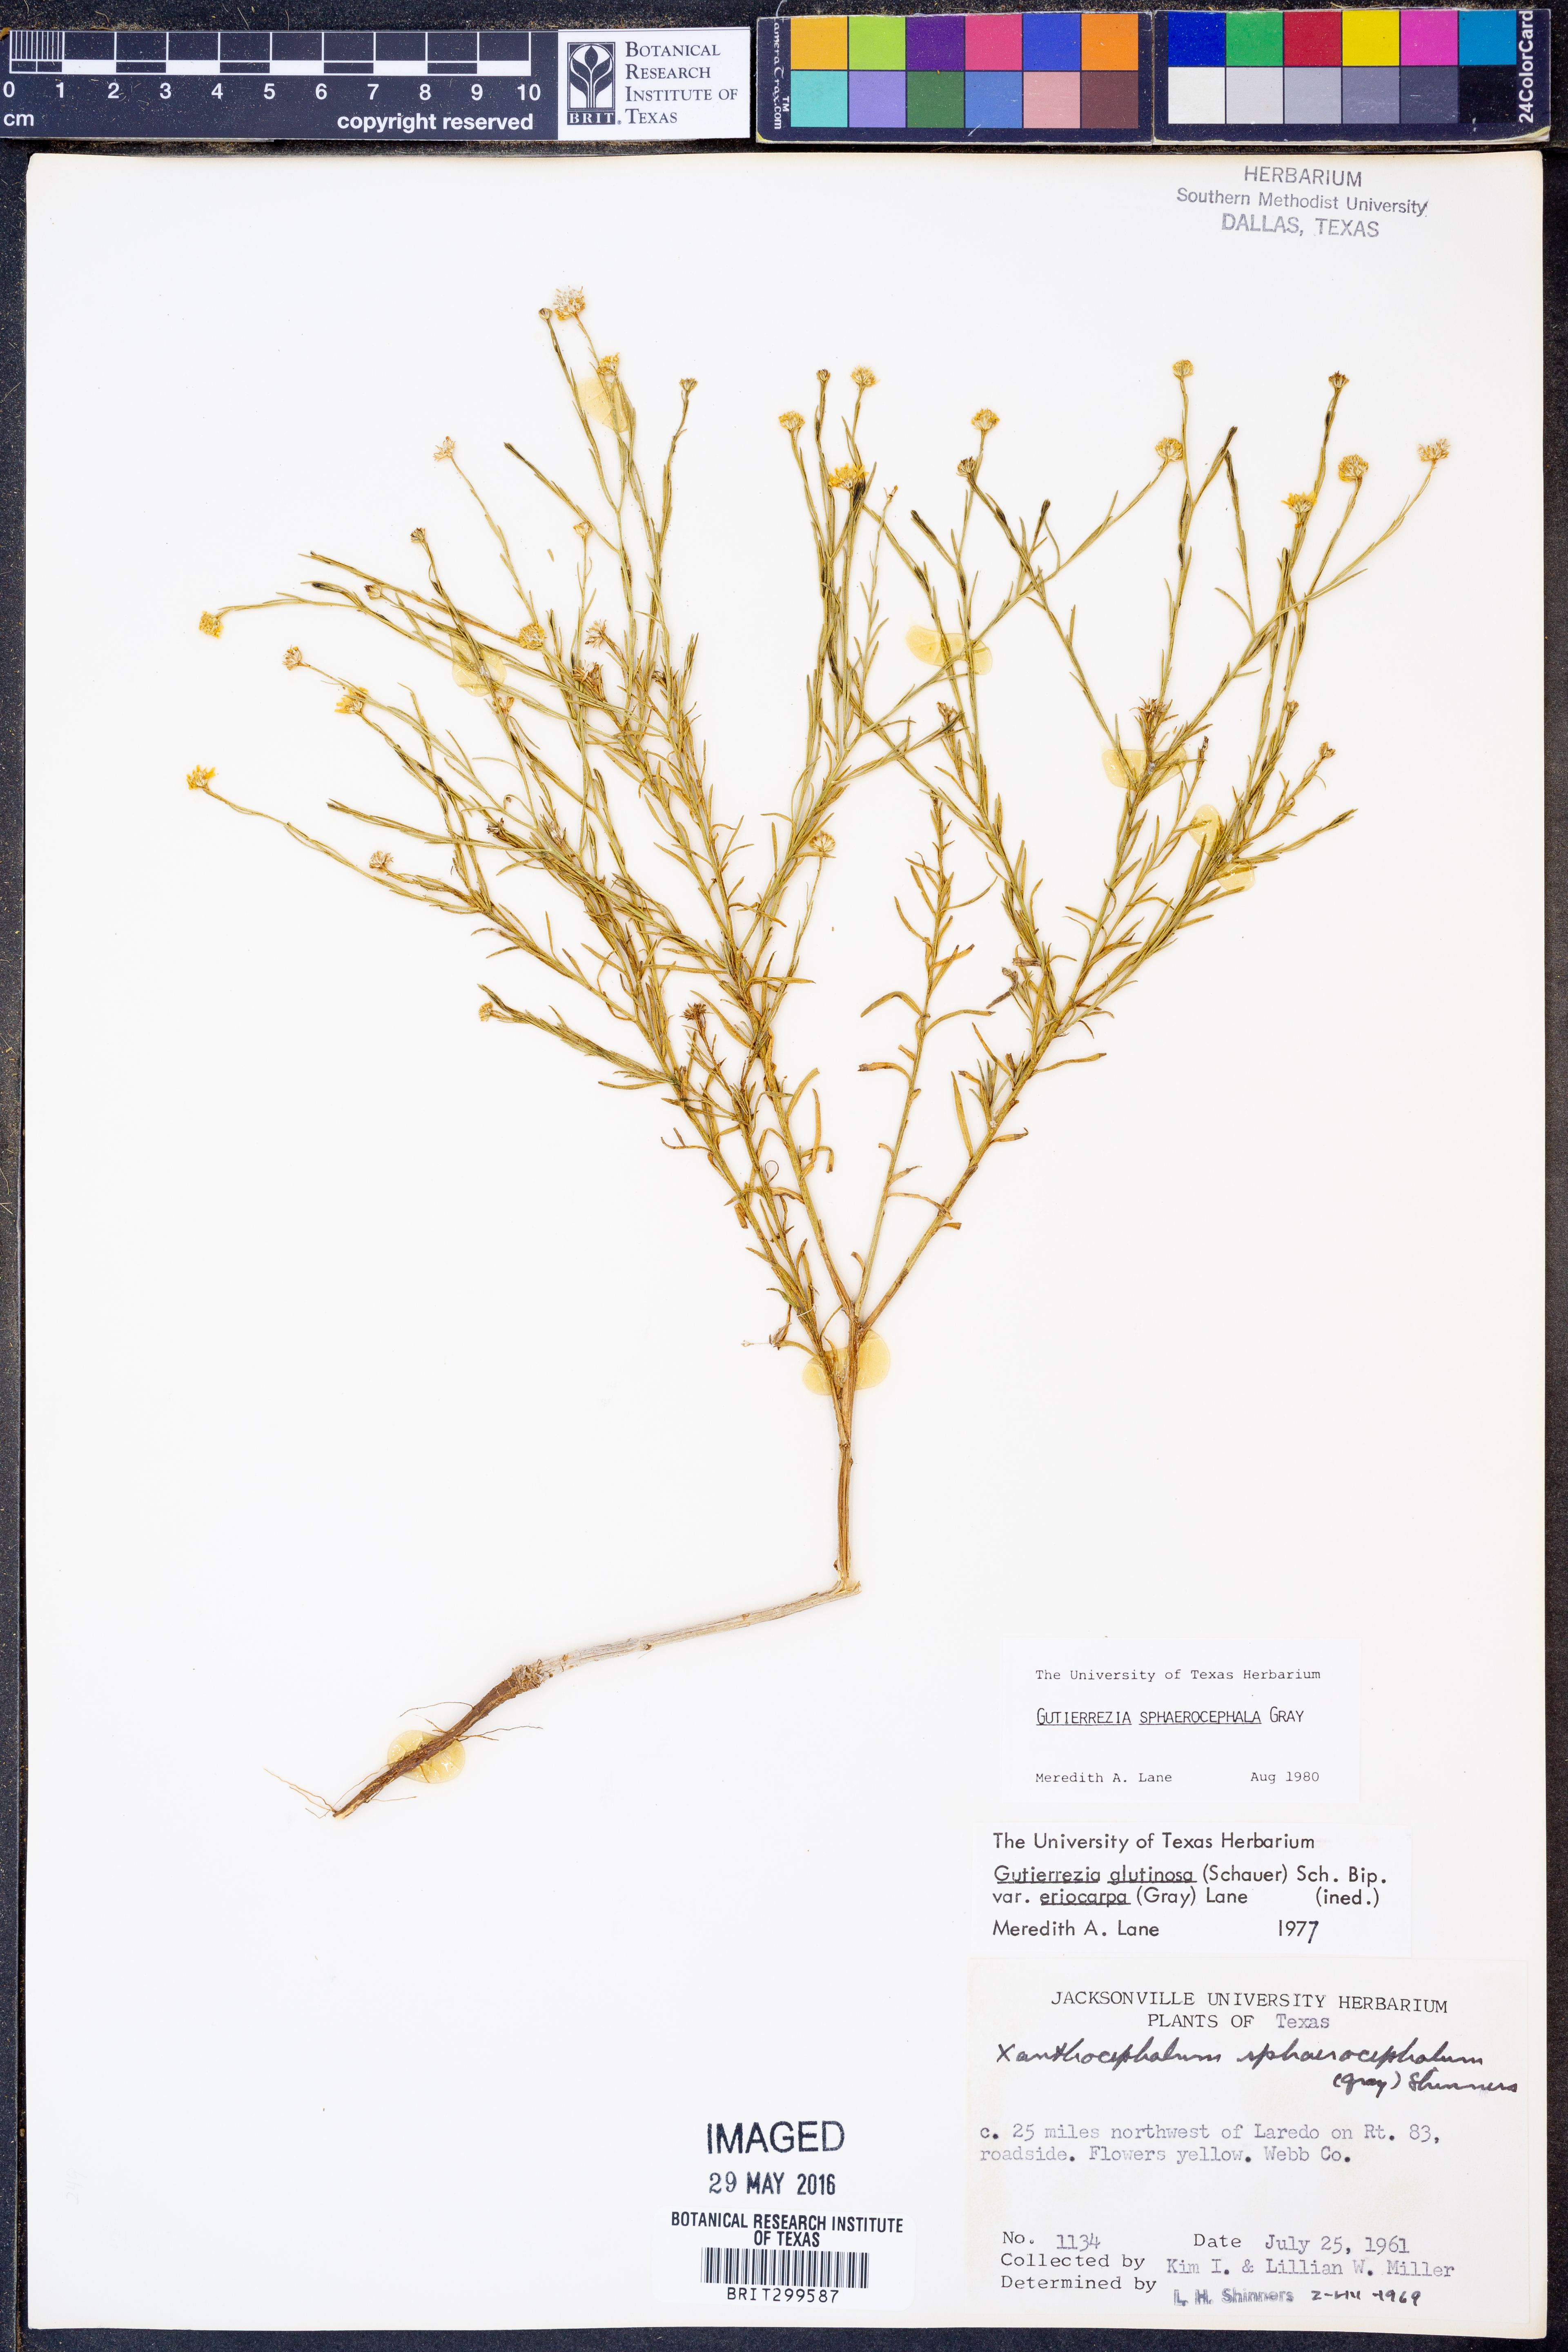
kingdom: Plantae
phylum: Tracheophyta
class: Magnoliopsida
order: Asterales
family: Asteraceae
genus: Gutierrezia
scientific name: Gutierrezia sphaerocephala
